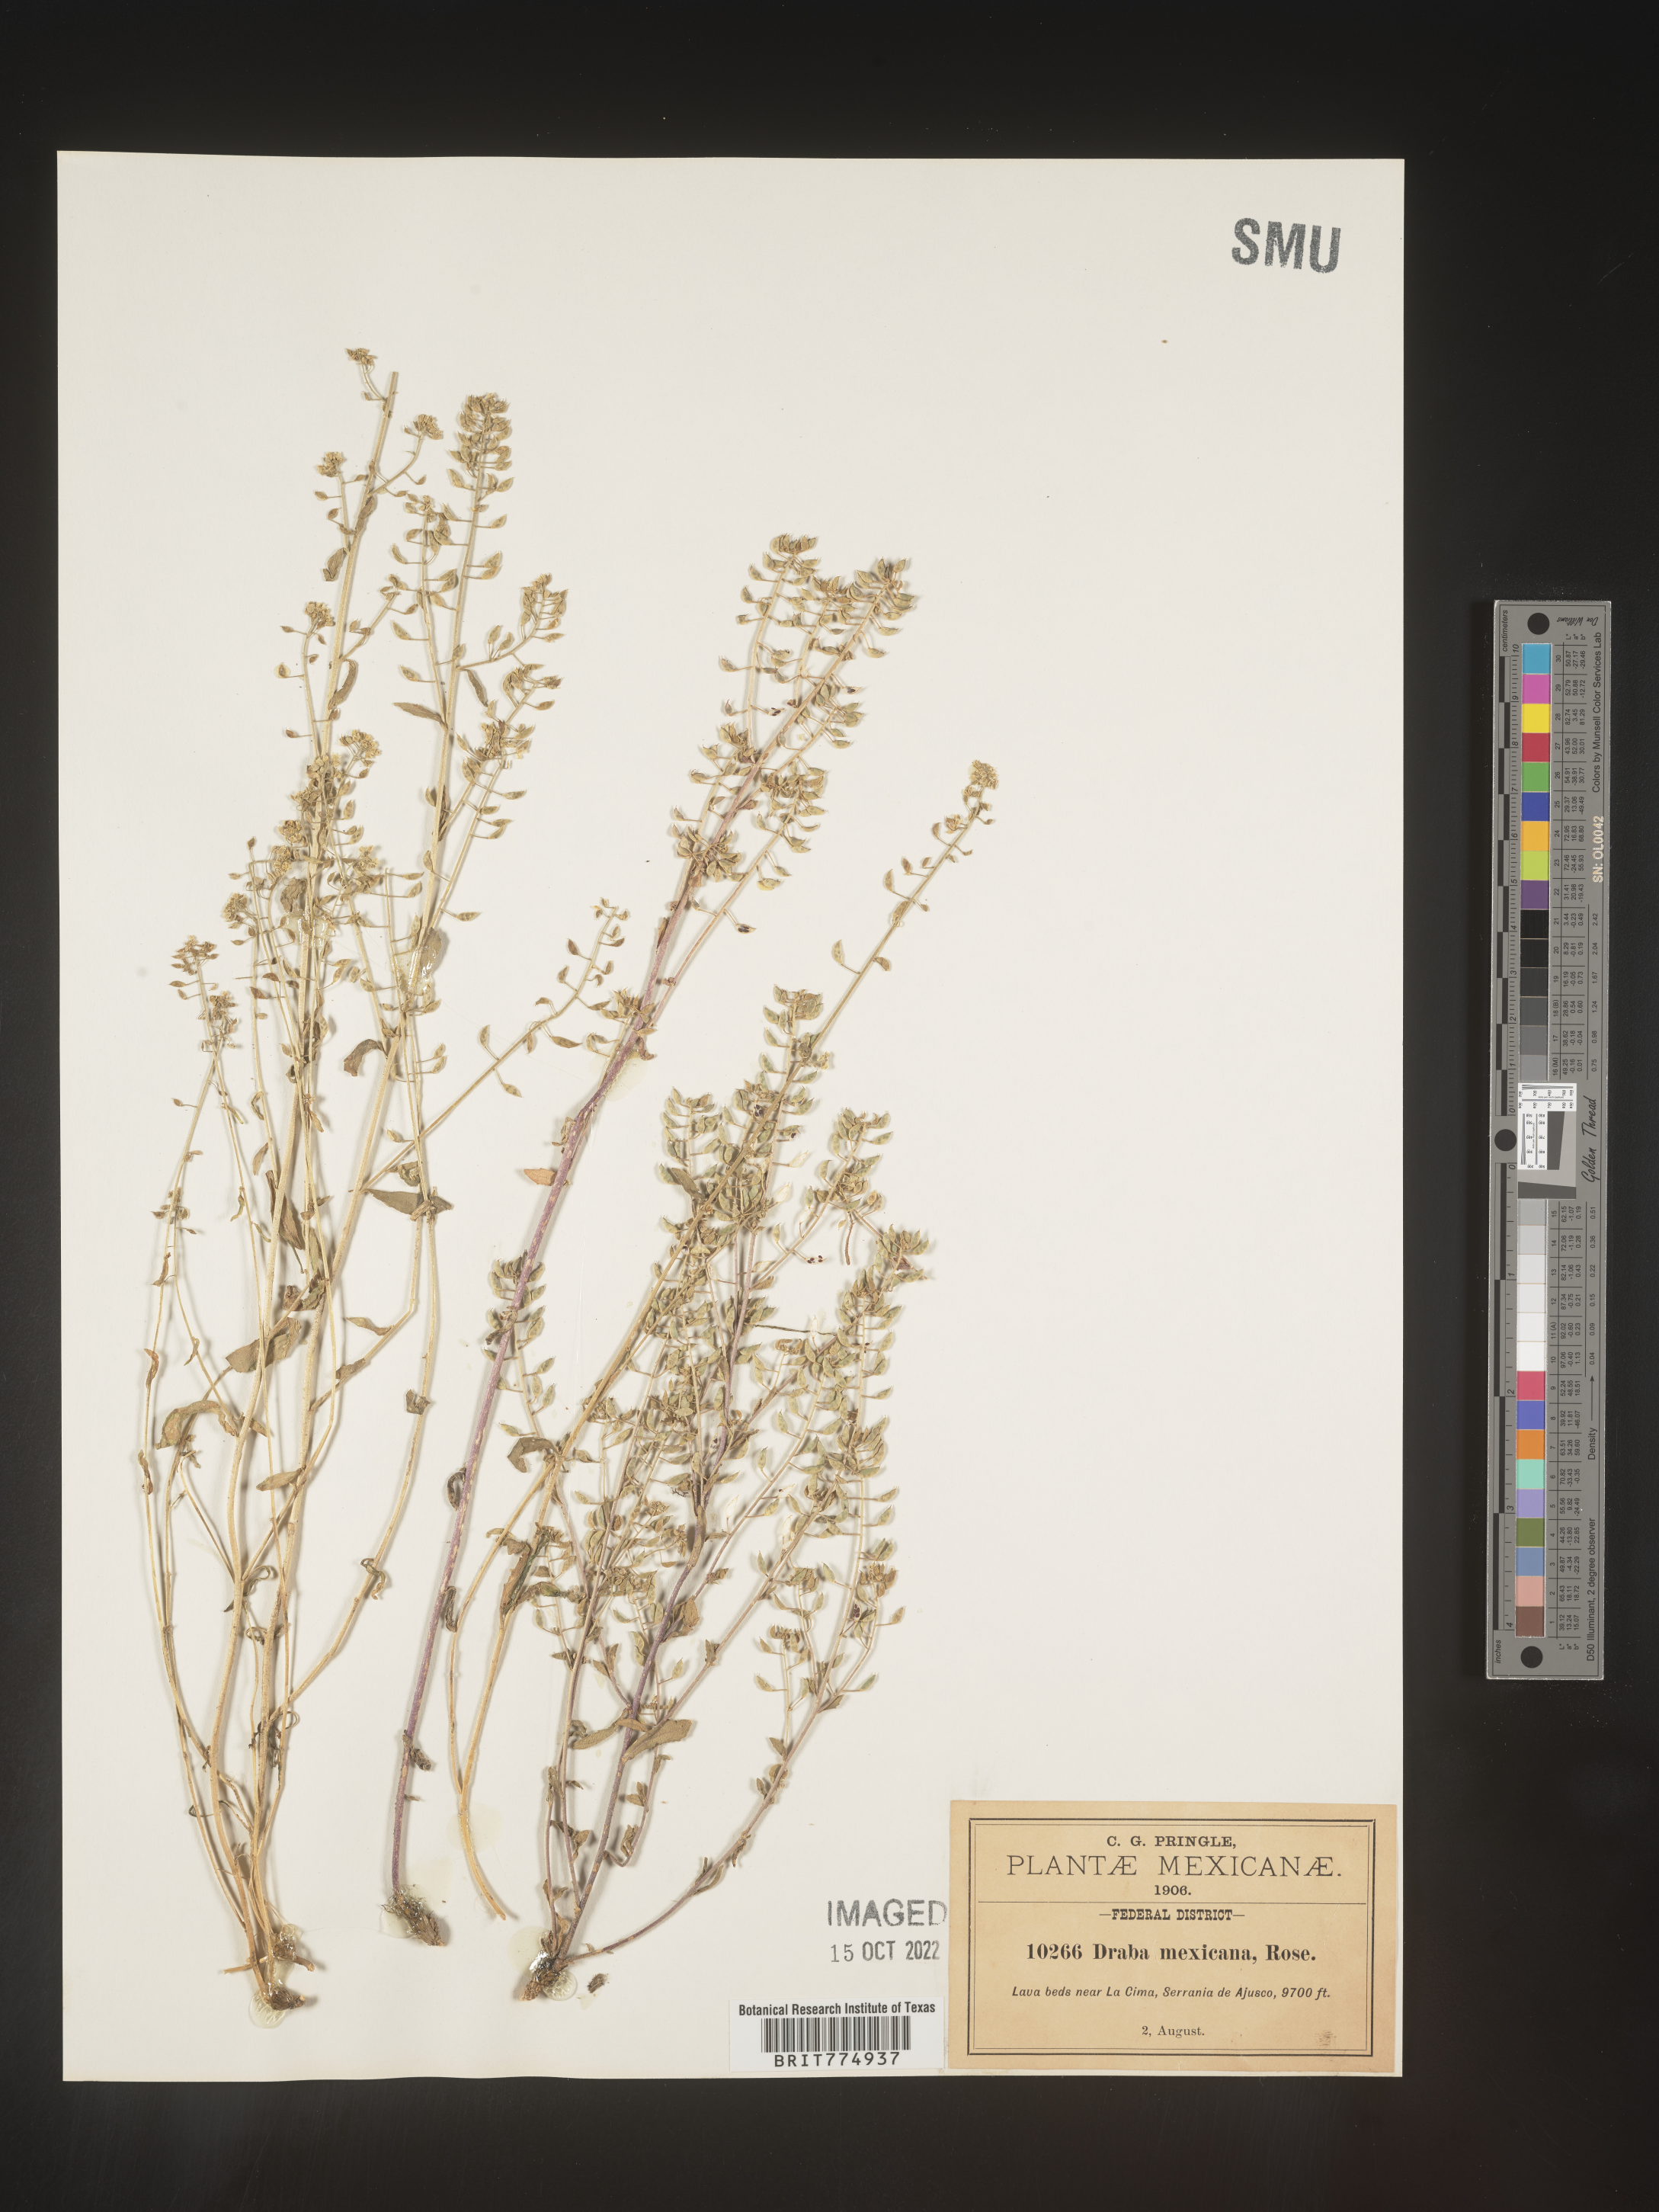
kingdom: Plantae
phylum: Tracheophyta
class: Magnoliopsida
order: Brassicales
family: Brassicaceae
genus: Draba
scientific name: Draba
